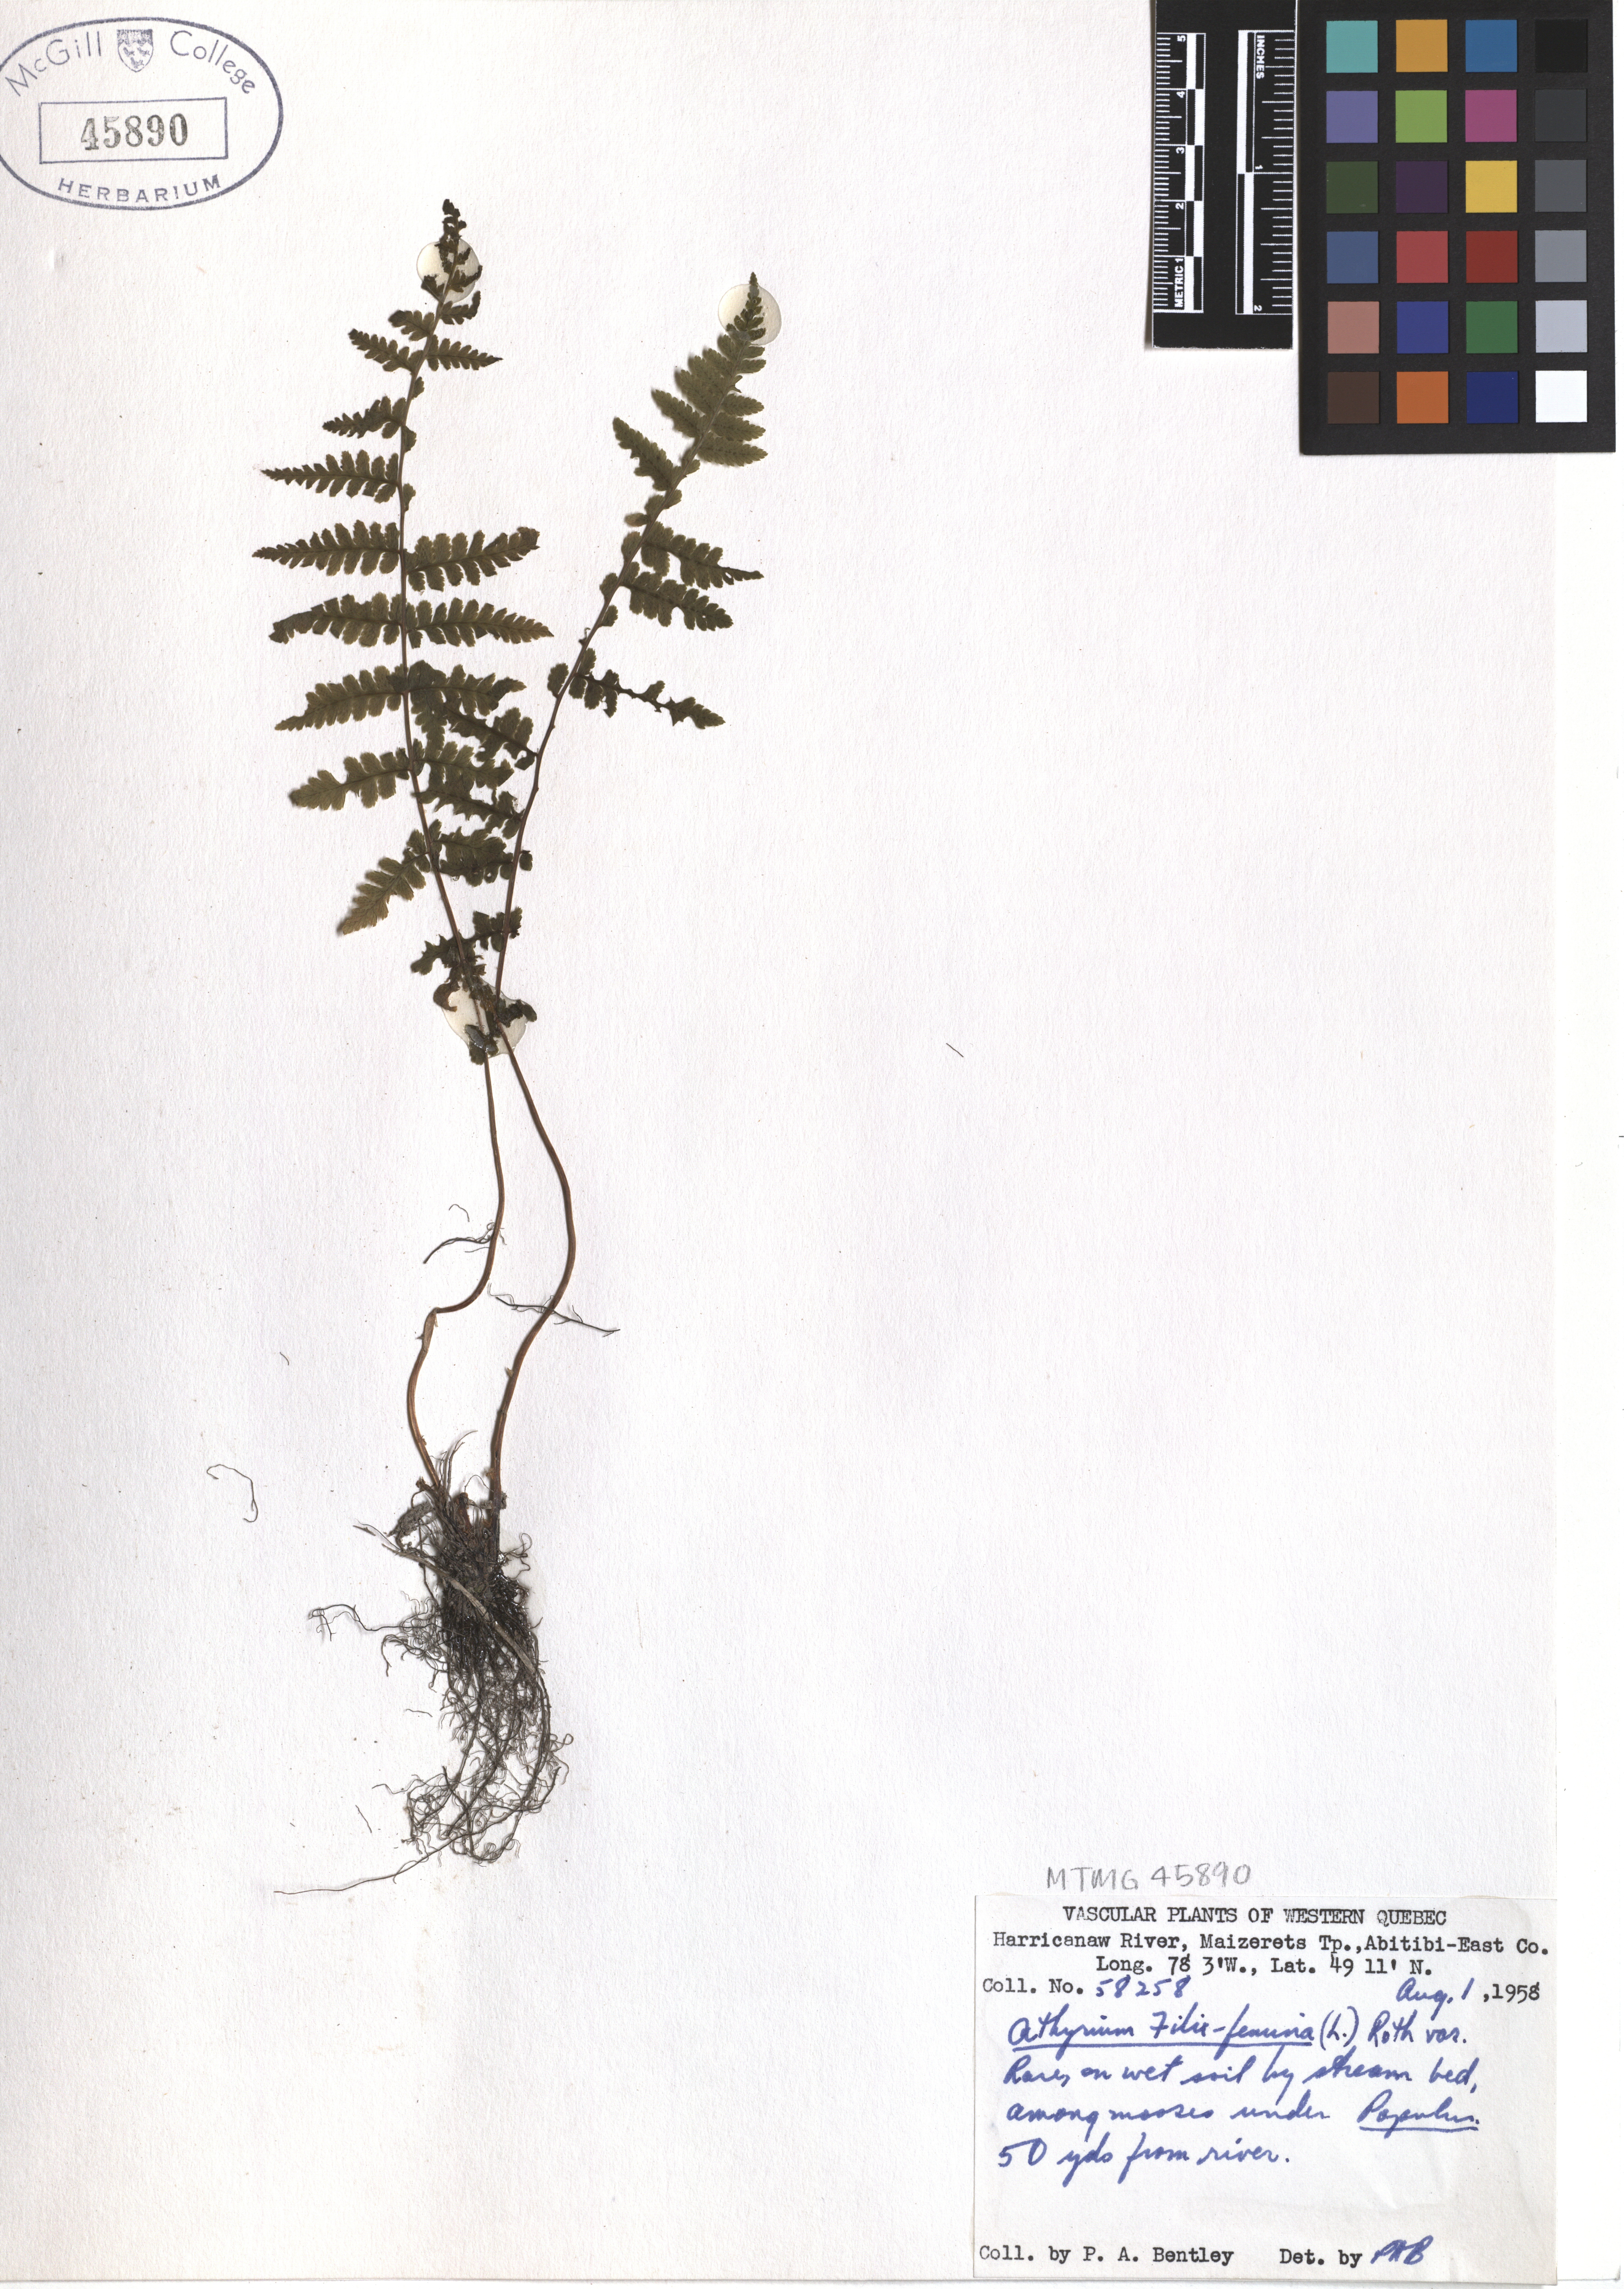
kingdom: Plantae
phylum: Tracheophyta
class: Polypodiopsida
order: Polypodiales
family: Athyriaceae
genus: Athyrium
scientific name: Athyrium filix-femina
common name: Lady fern
